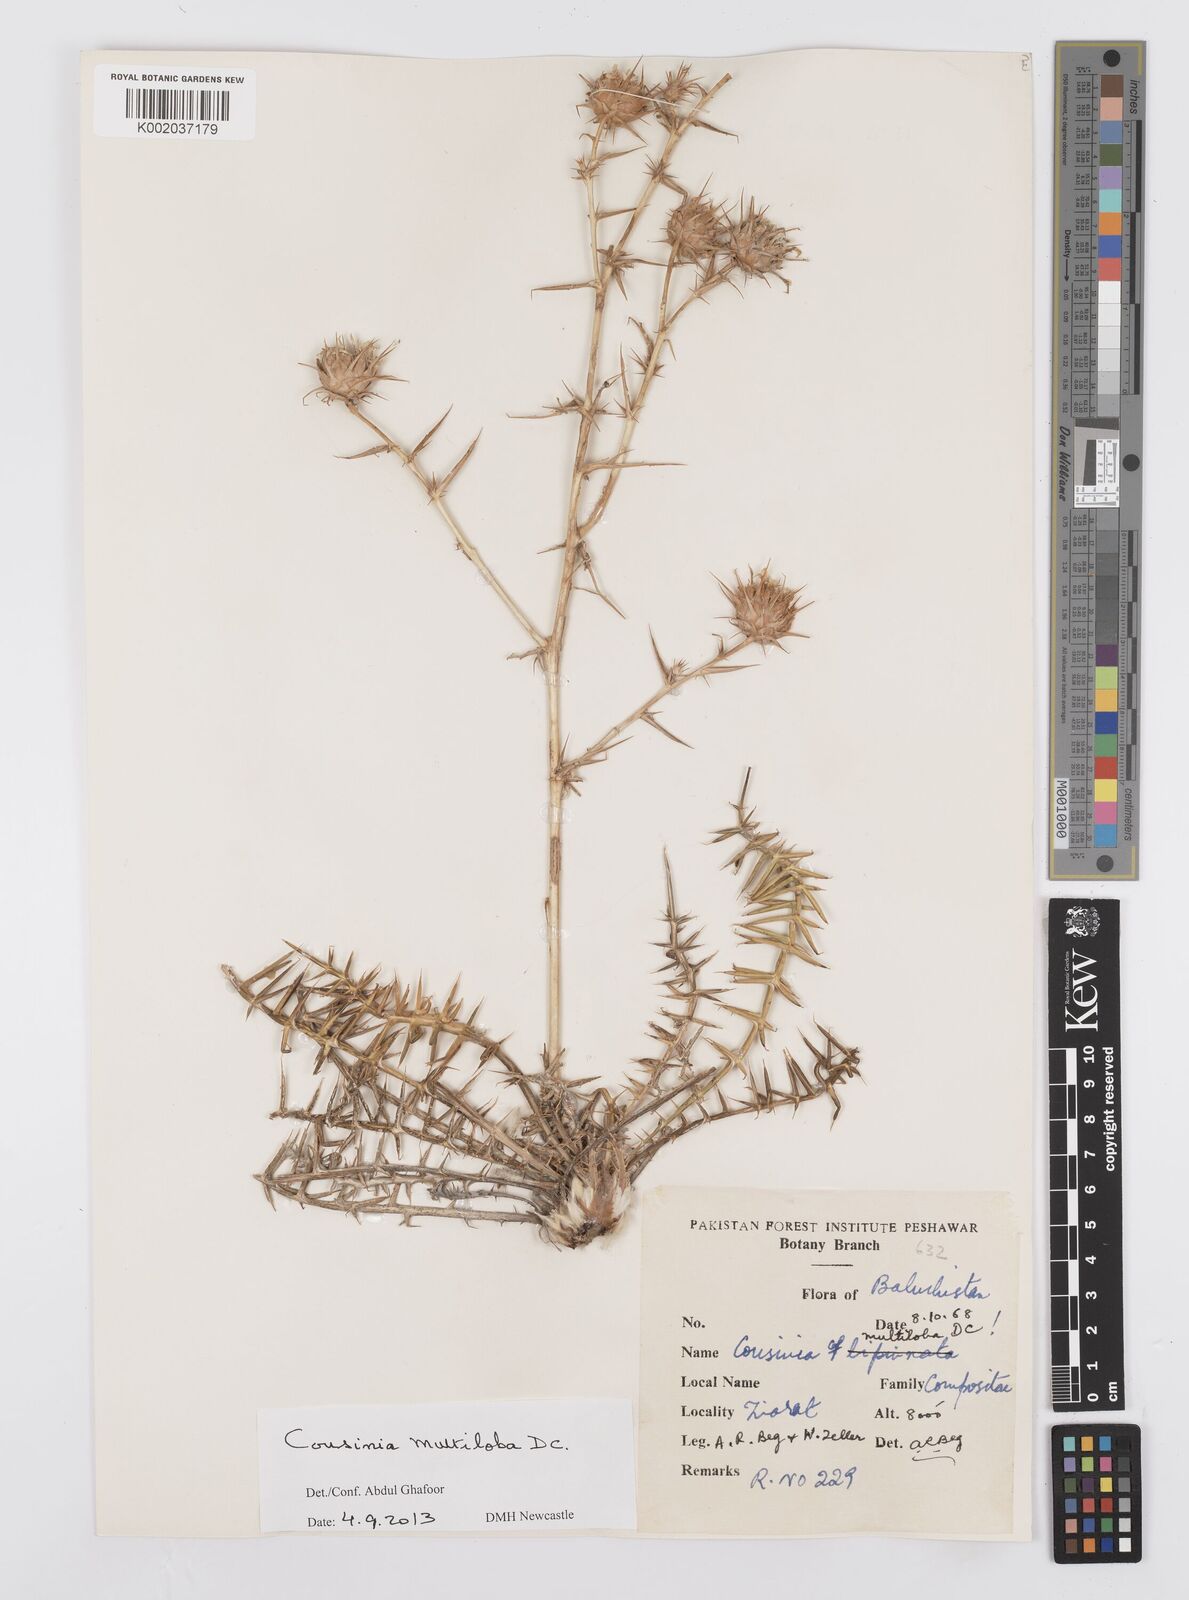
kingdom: Plantae
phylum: Tracheophyta
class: Magnoliopsida
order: Asterales
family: Asteraceae
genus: Cousinia
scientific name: Cousinia multiloba
